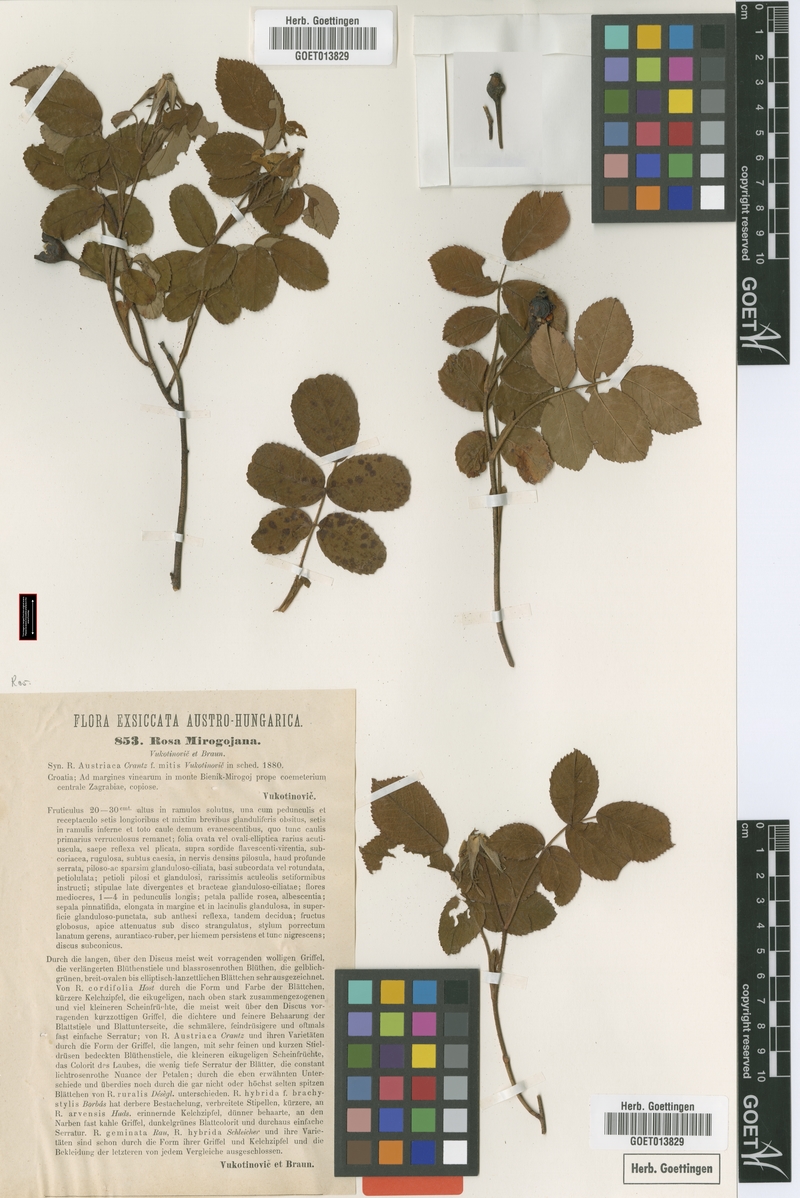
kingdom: Plantae
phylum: Tracheophyta
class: Magnoliopsida
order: Rosales
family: Rosaceae
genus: Rosa
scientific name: Rosa mirogojana
